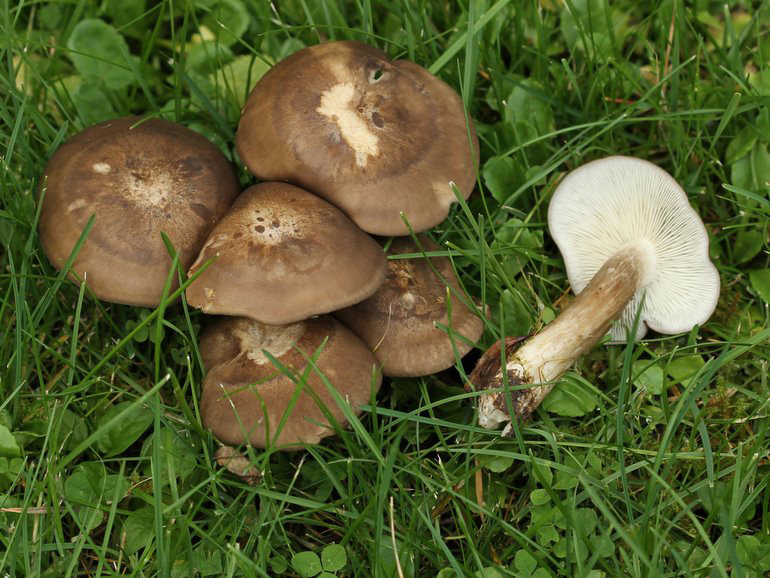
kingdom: Fungi
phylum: Basidiomycota
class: Agaricomycetes
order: Agaricales
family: Lyophyllaceae
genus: Lyophyllum
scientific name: Lyophyllum decastes
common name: røggrå gråblad
